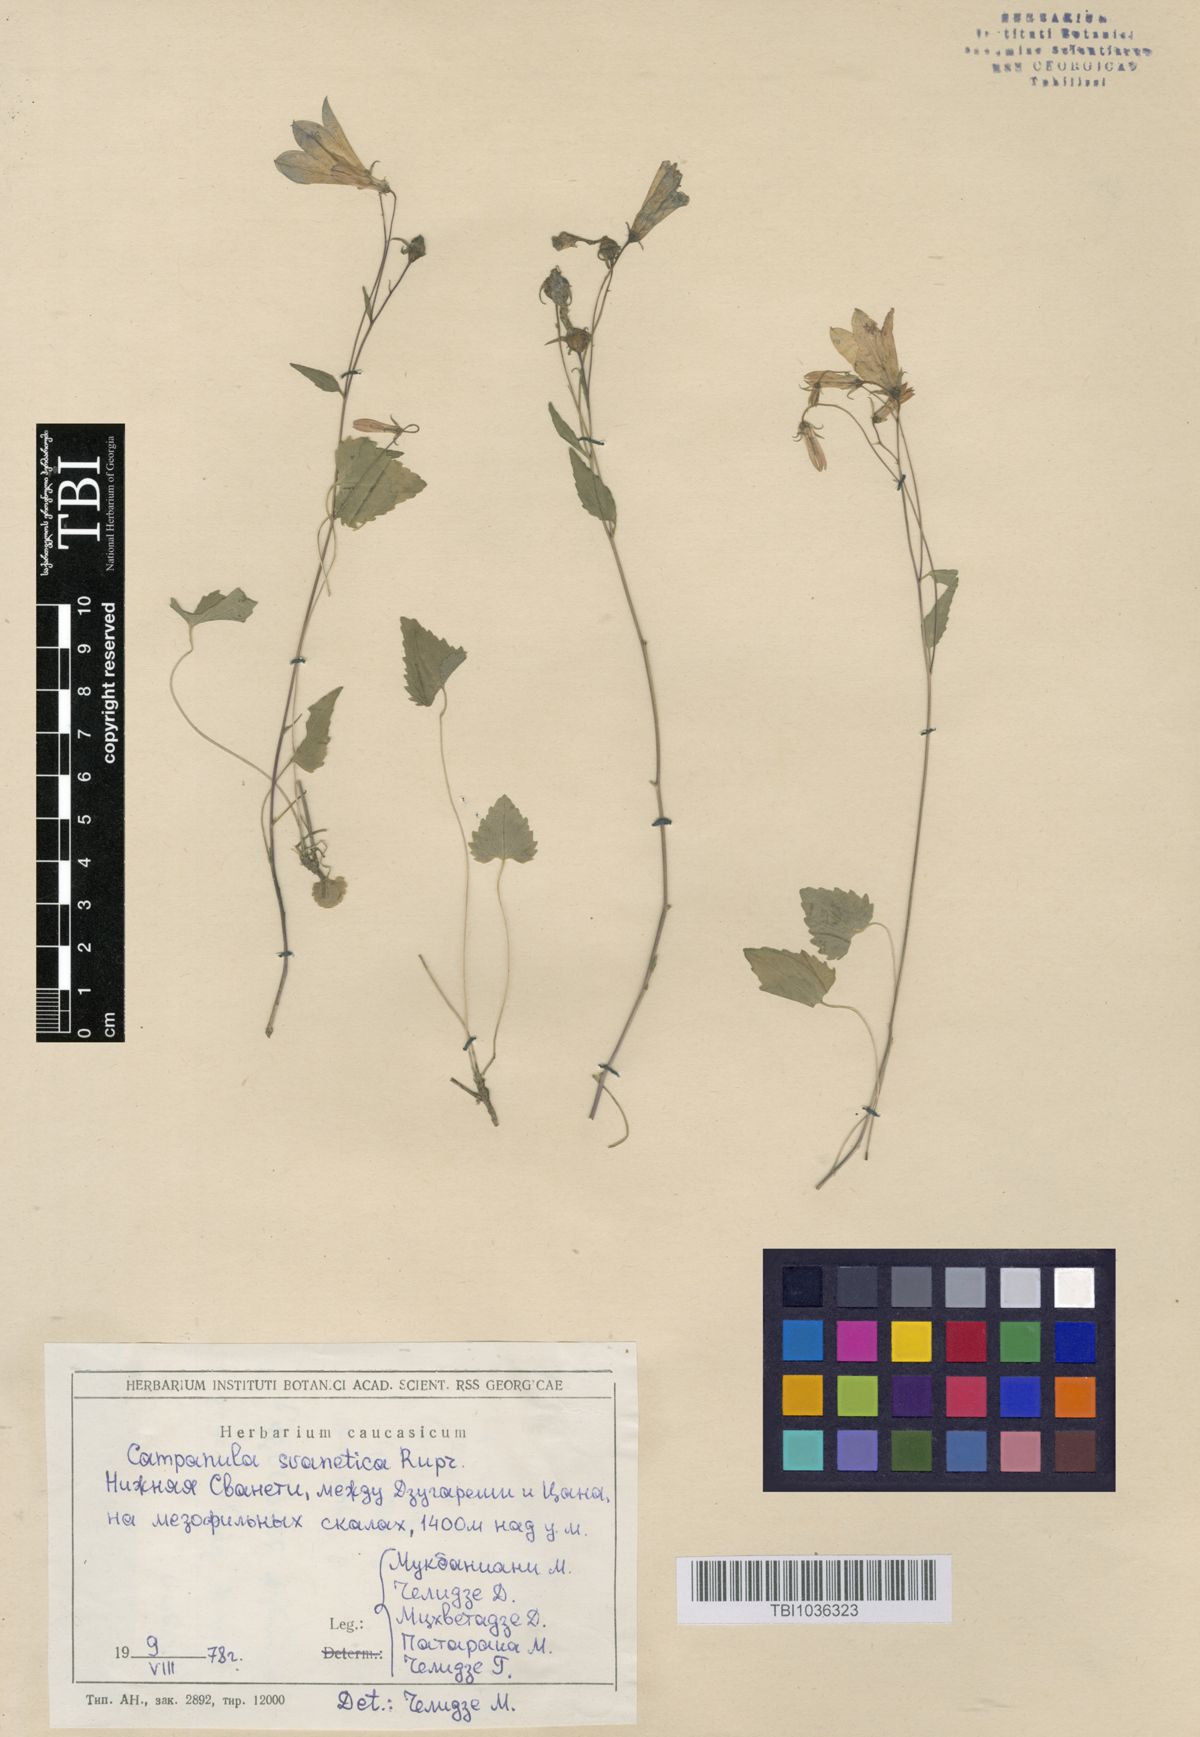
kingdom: Plantae
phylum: Tracheophyta
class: Magnoliopsida
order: Asterales
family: Campanulaceae
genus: Campanula
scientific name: Campanula suanetica
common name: Svanetian bellflower
